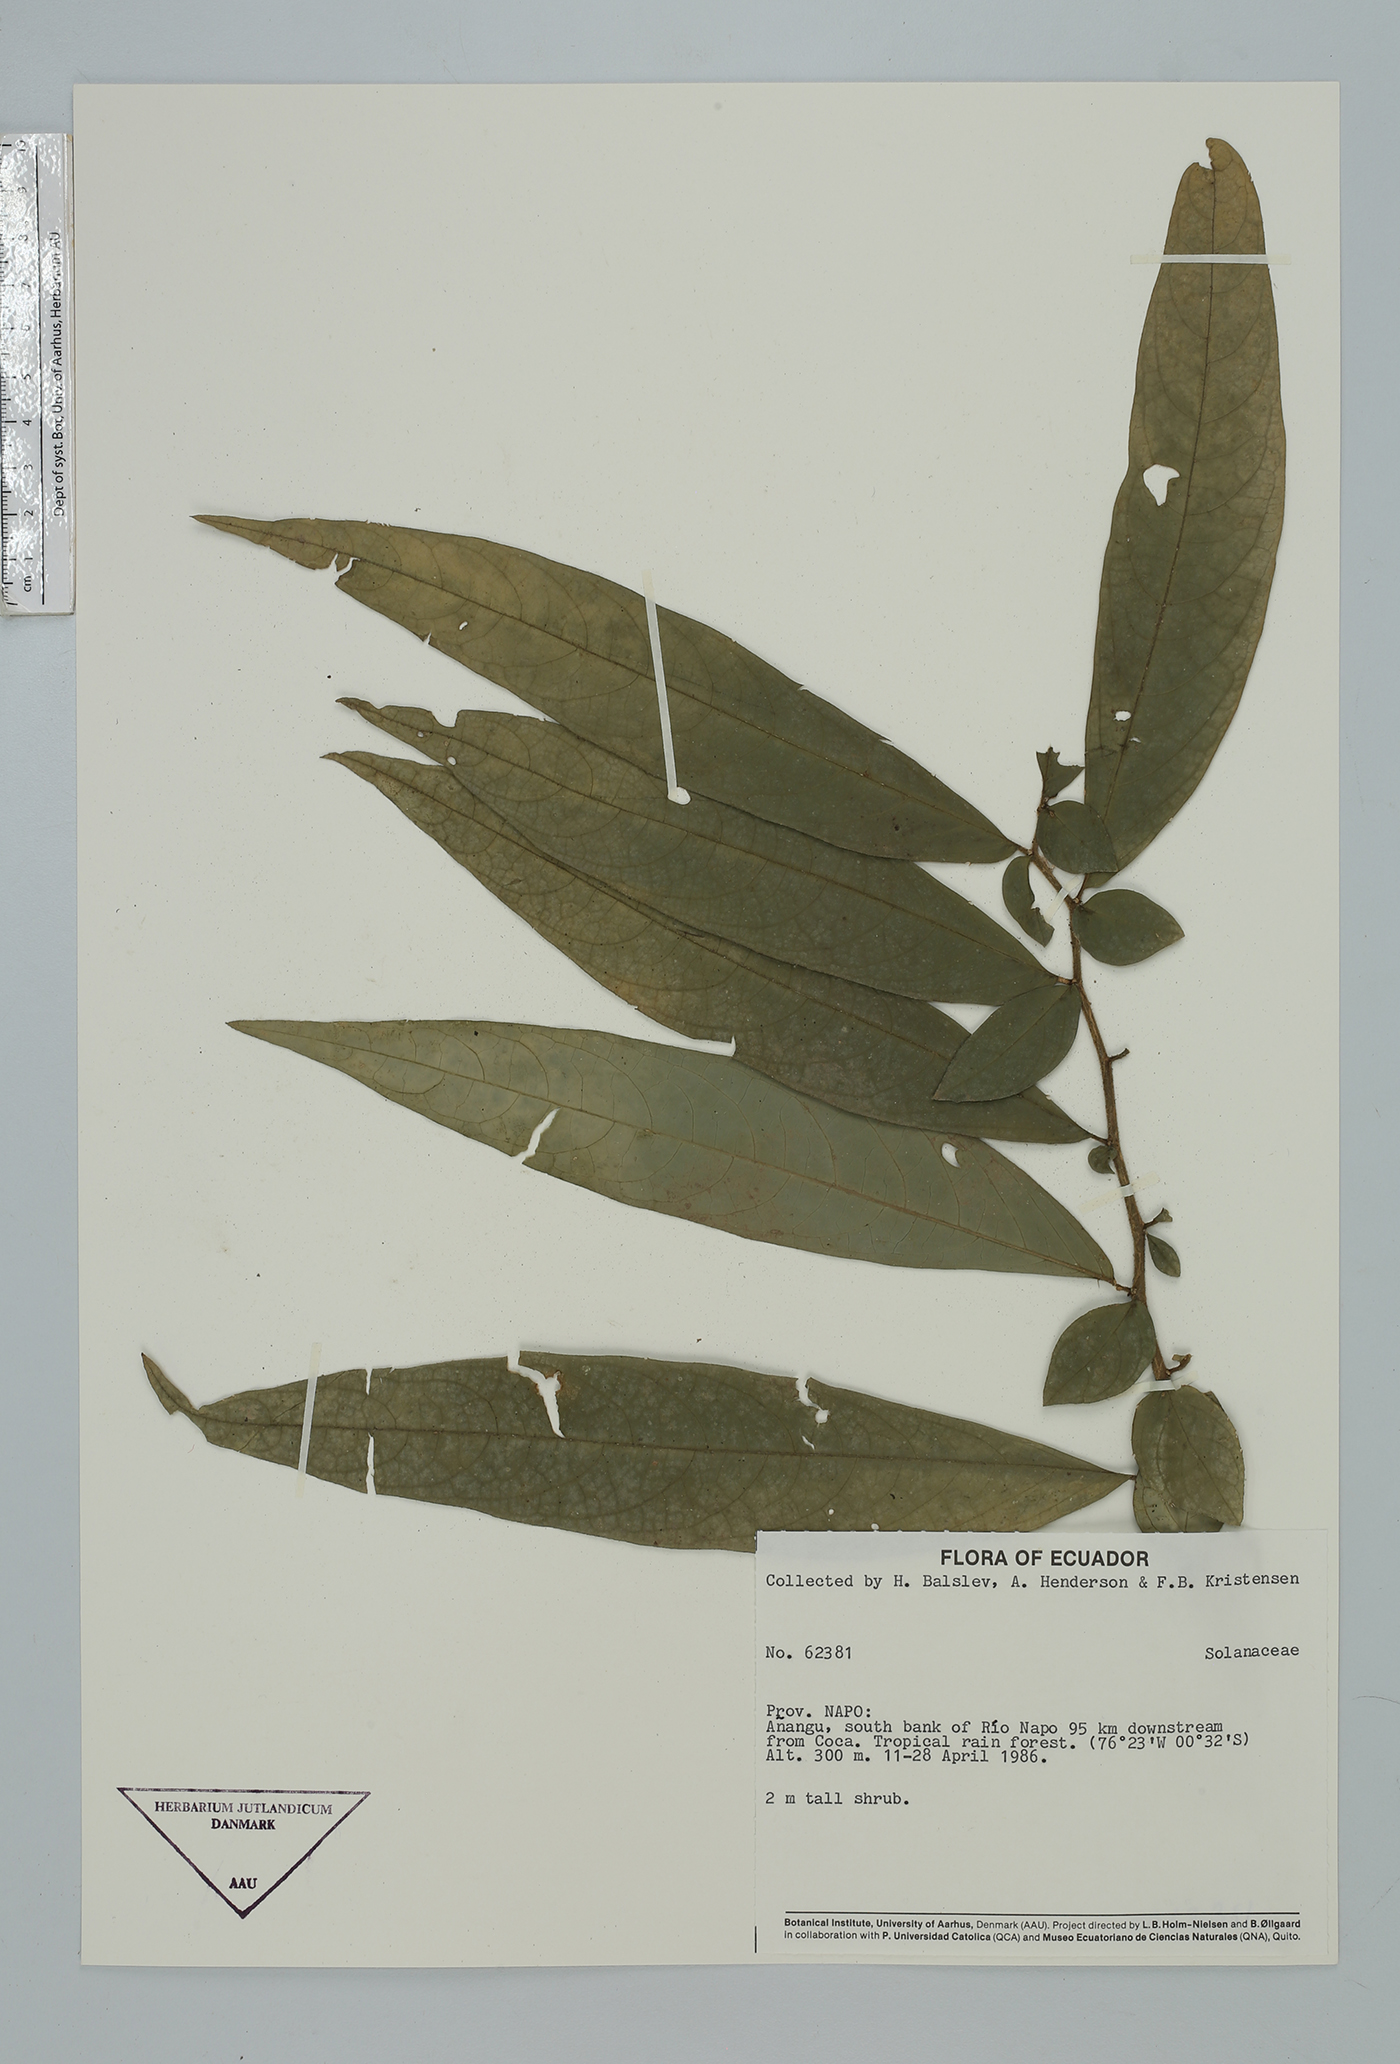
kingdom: Plantae
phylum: Tracheophyta
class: Magnoliopsida
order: Solanales
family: Solanaceae
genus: Cestrum
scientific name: Cestrum
